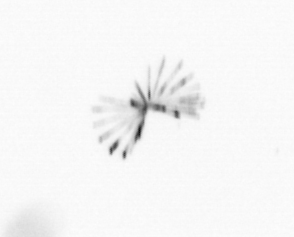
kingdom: Chromista
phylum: Ochrophyta
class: Bacillariophyceae
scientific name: Bacillariophyceae
